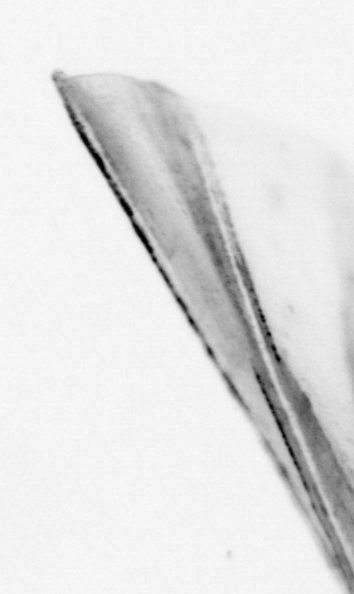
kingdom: Animalia
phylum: Chordata
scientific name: Chordata
